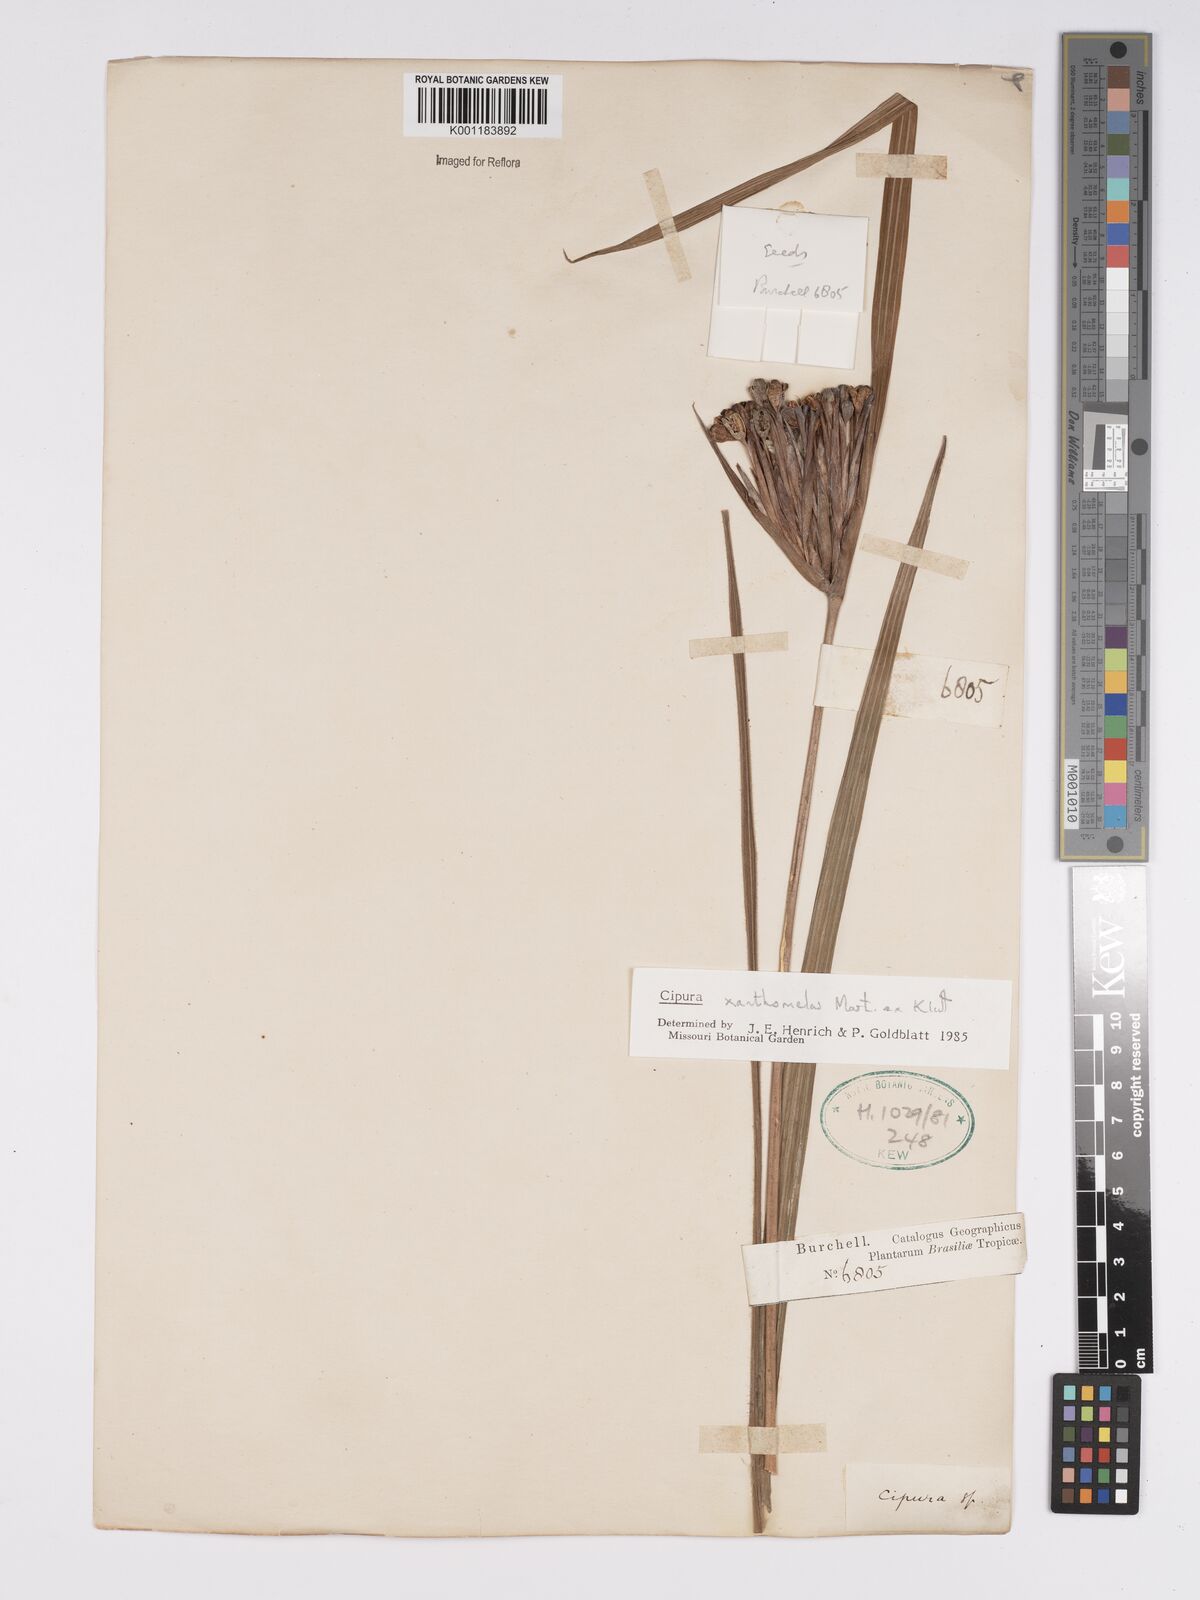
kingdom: Plantae
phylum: Tracheophyta
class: Liliopsida
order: Asparagales
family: Iridaceae
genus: Cipura
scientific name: Cipura xanthomelas
